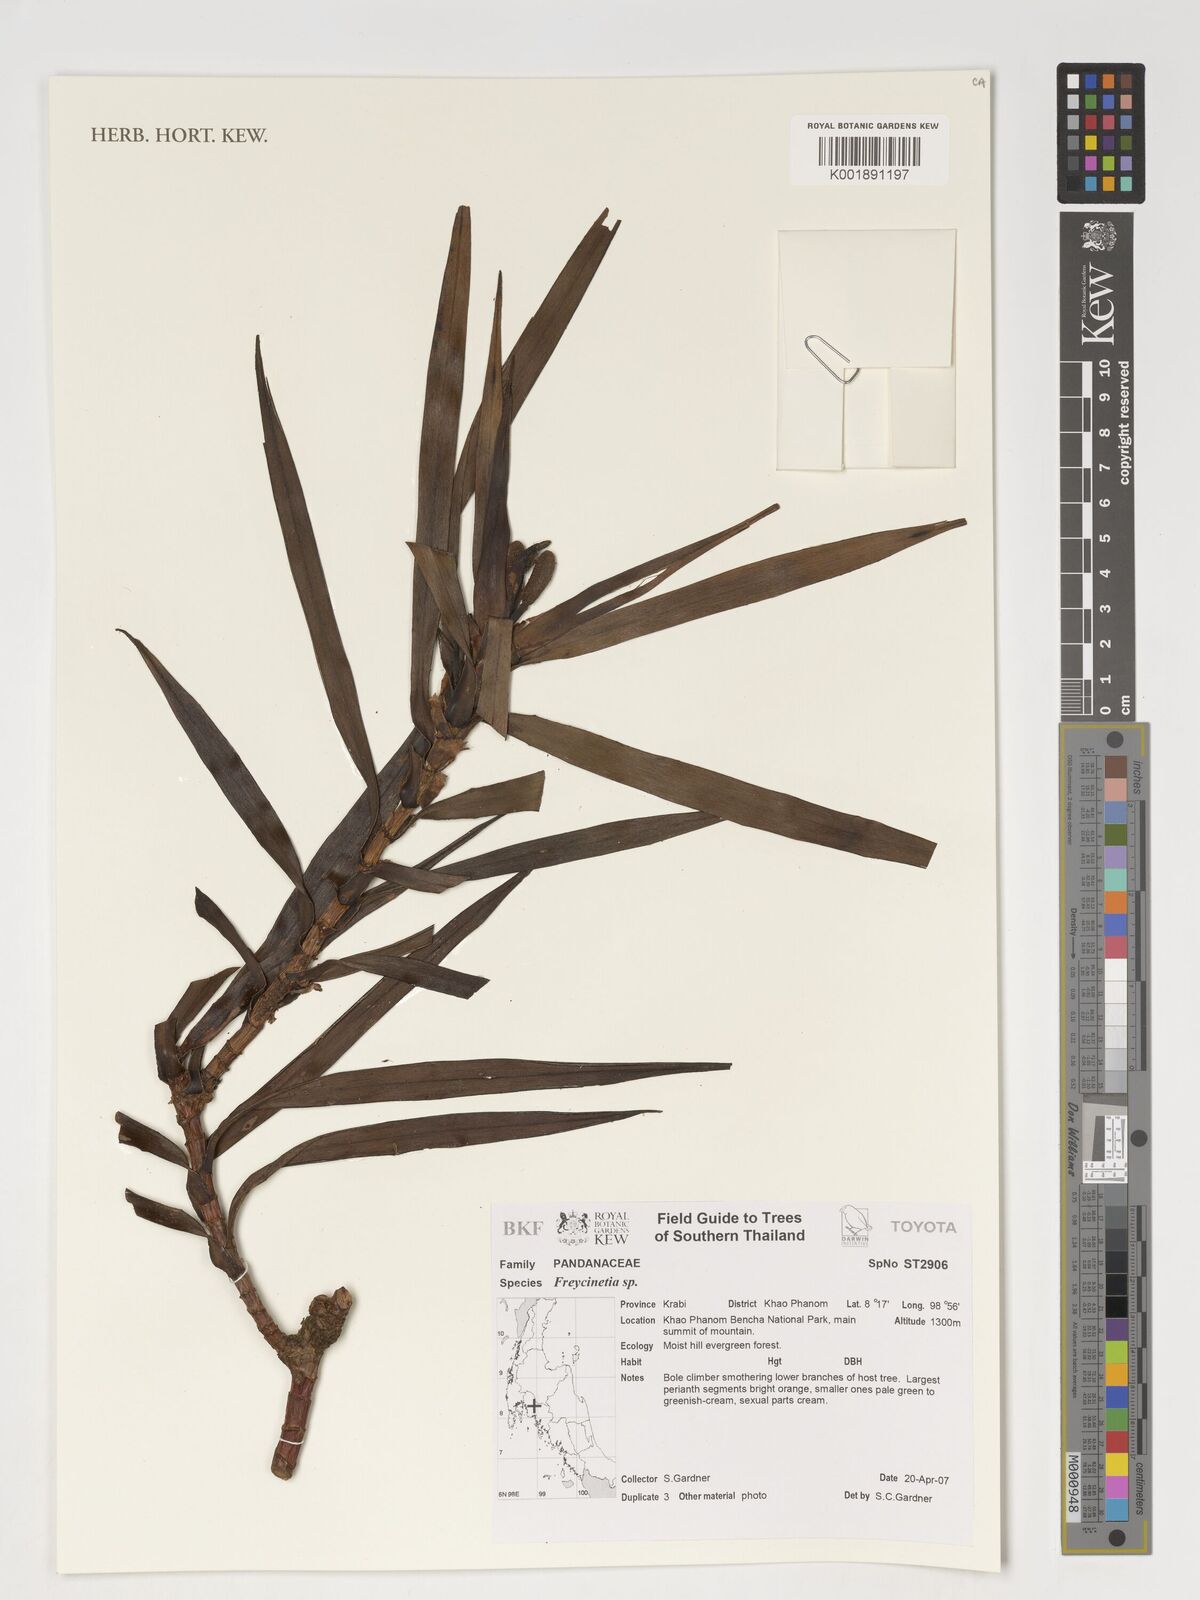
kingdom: Plantae
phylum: Tracheophyta
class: Liliopsida
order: Pandanales
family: Pandanaceae
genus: Freycinetia
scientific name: Freycinetia
